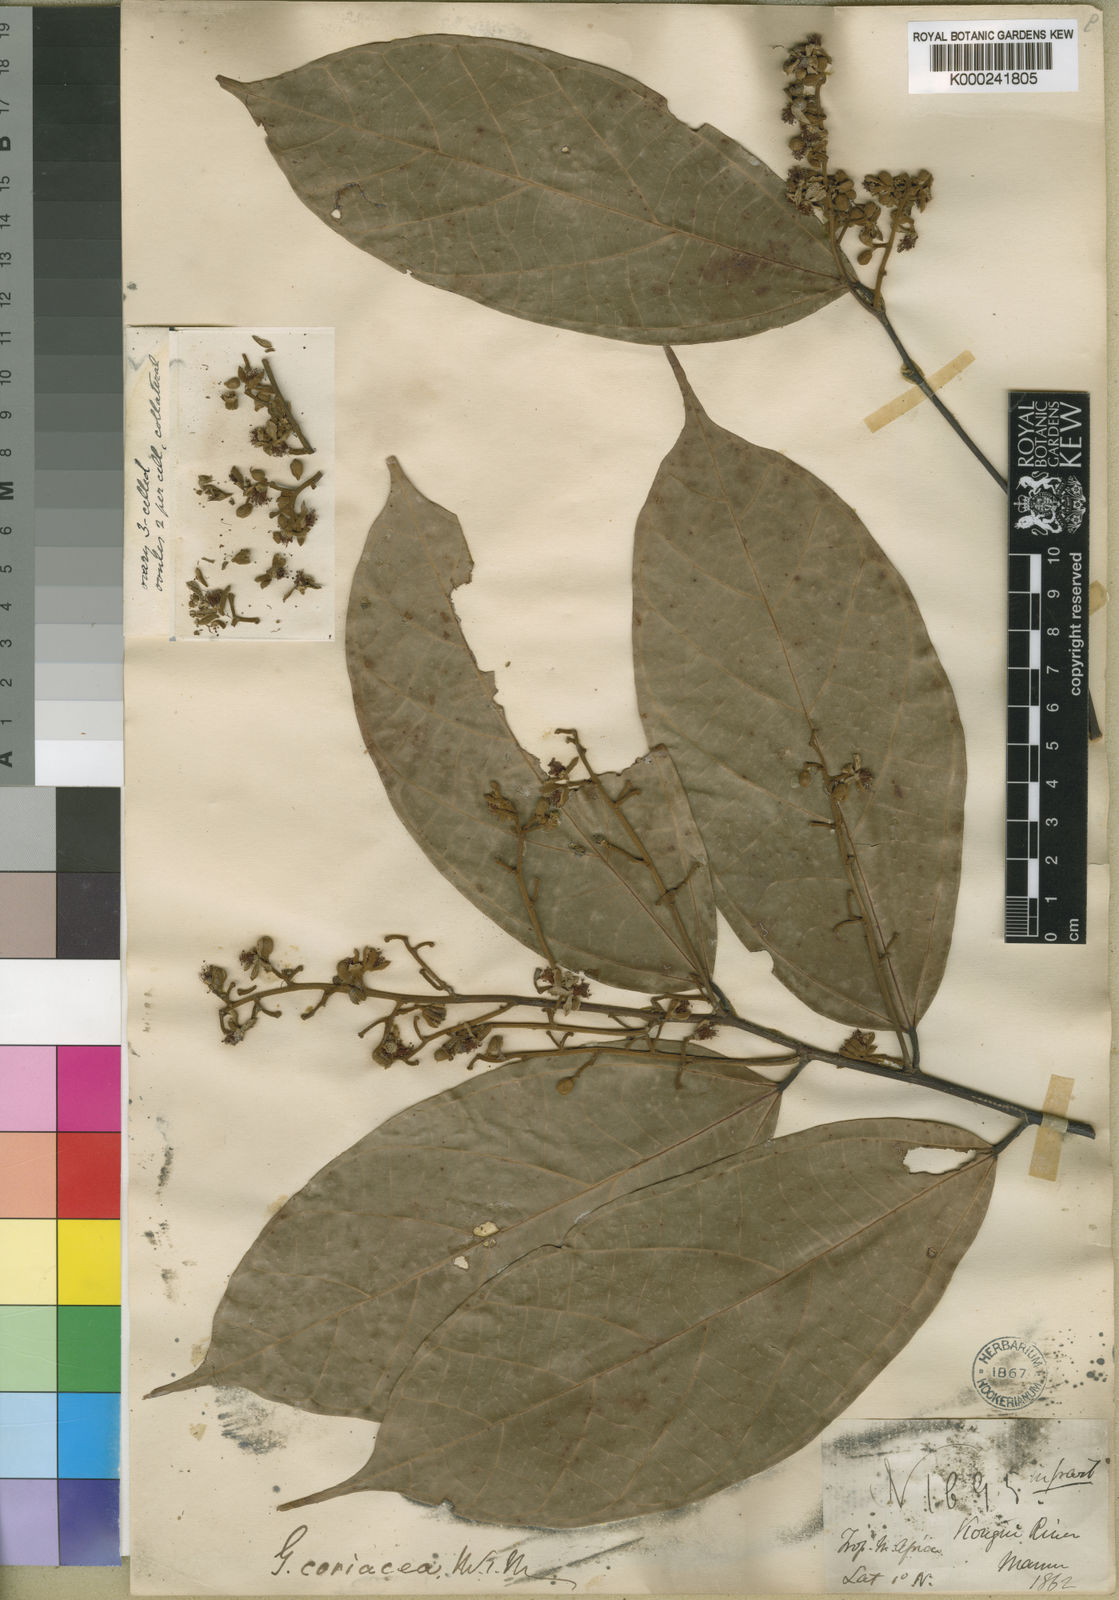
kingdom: Plantae
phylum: Tracheophyta
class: Magnoliopsida
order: Malvales
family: Malvaceae
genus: Microcos
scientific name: Microcos coriacea
